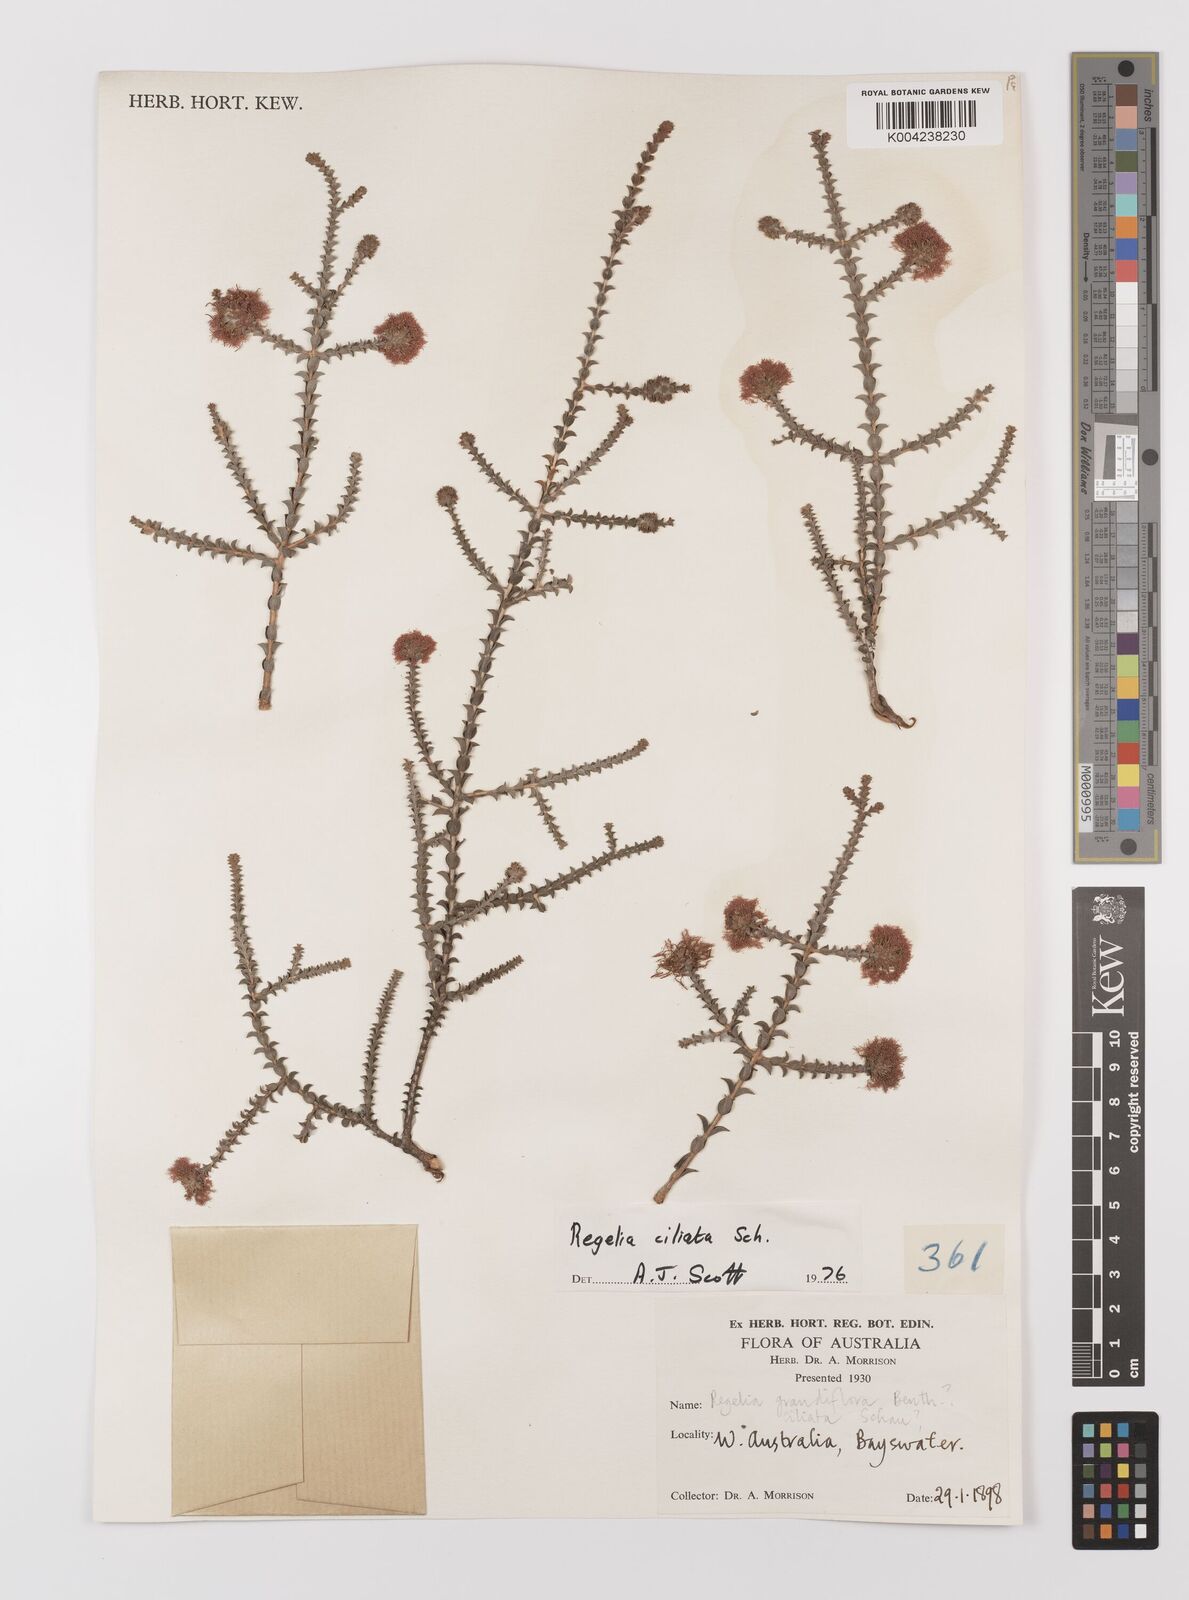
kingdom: Plantae
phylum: Tracheophyta
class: Magnoliopsida
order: Myrtales
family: Myrtaceae
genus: Melaleuca
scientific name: Melaleuca crossota
